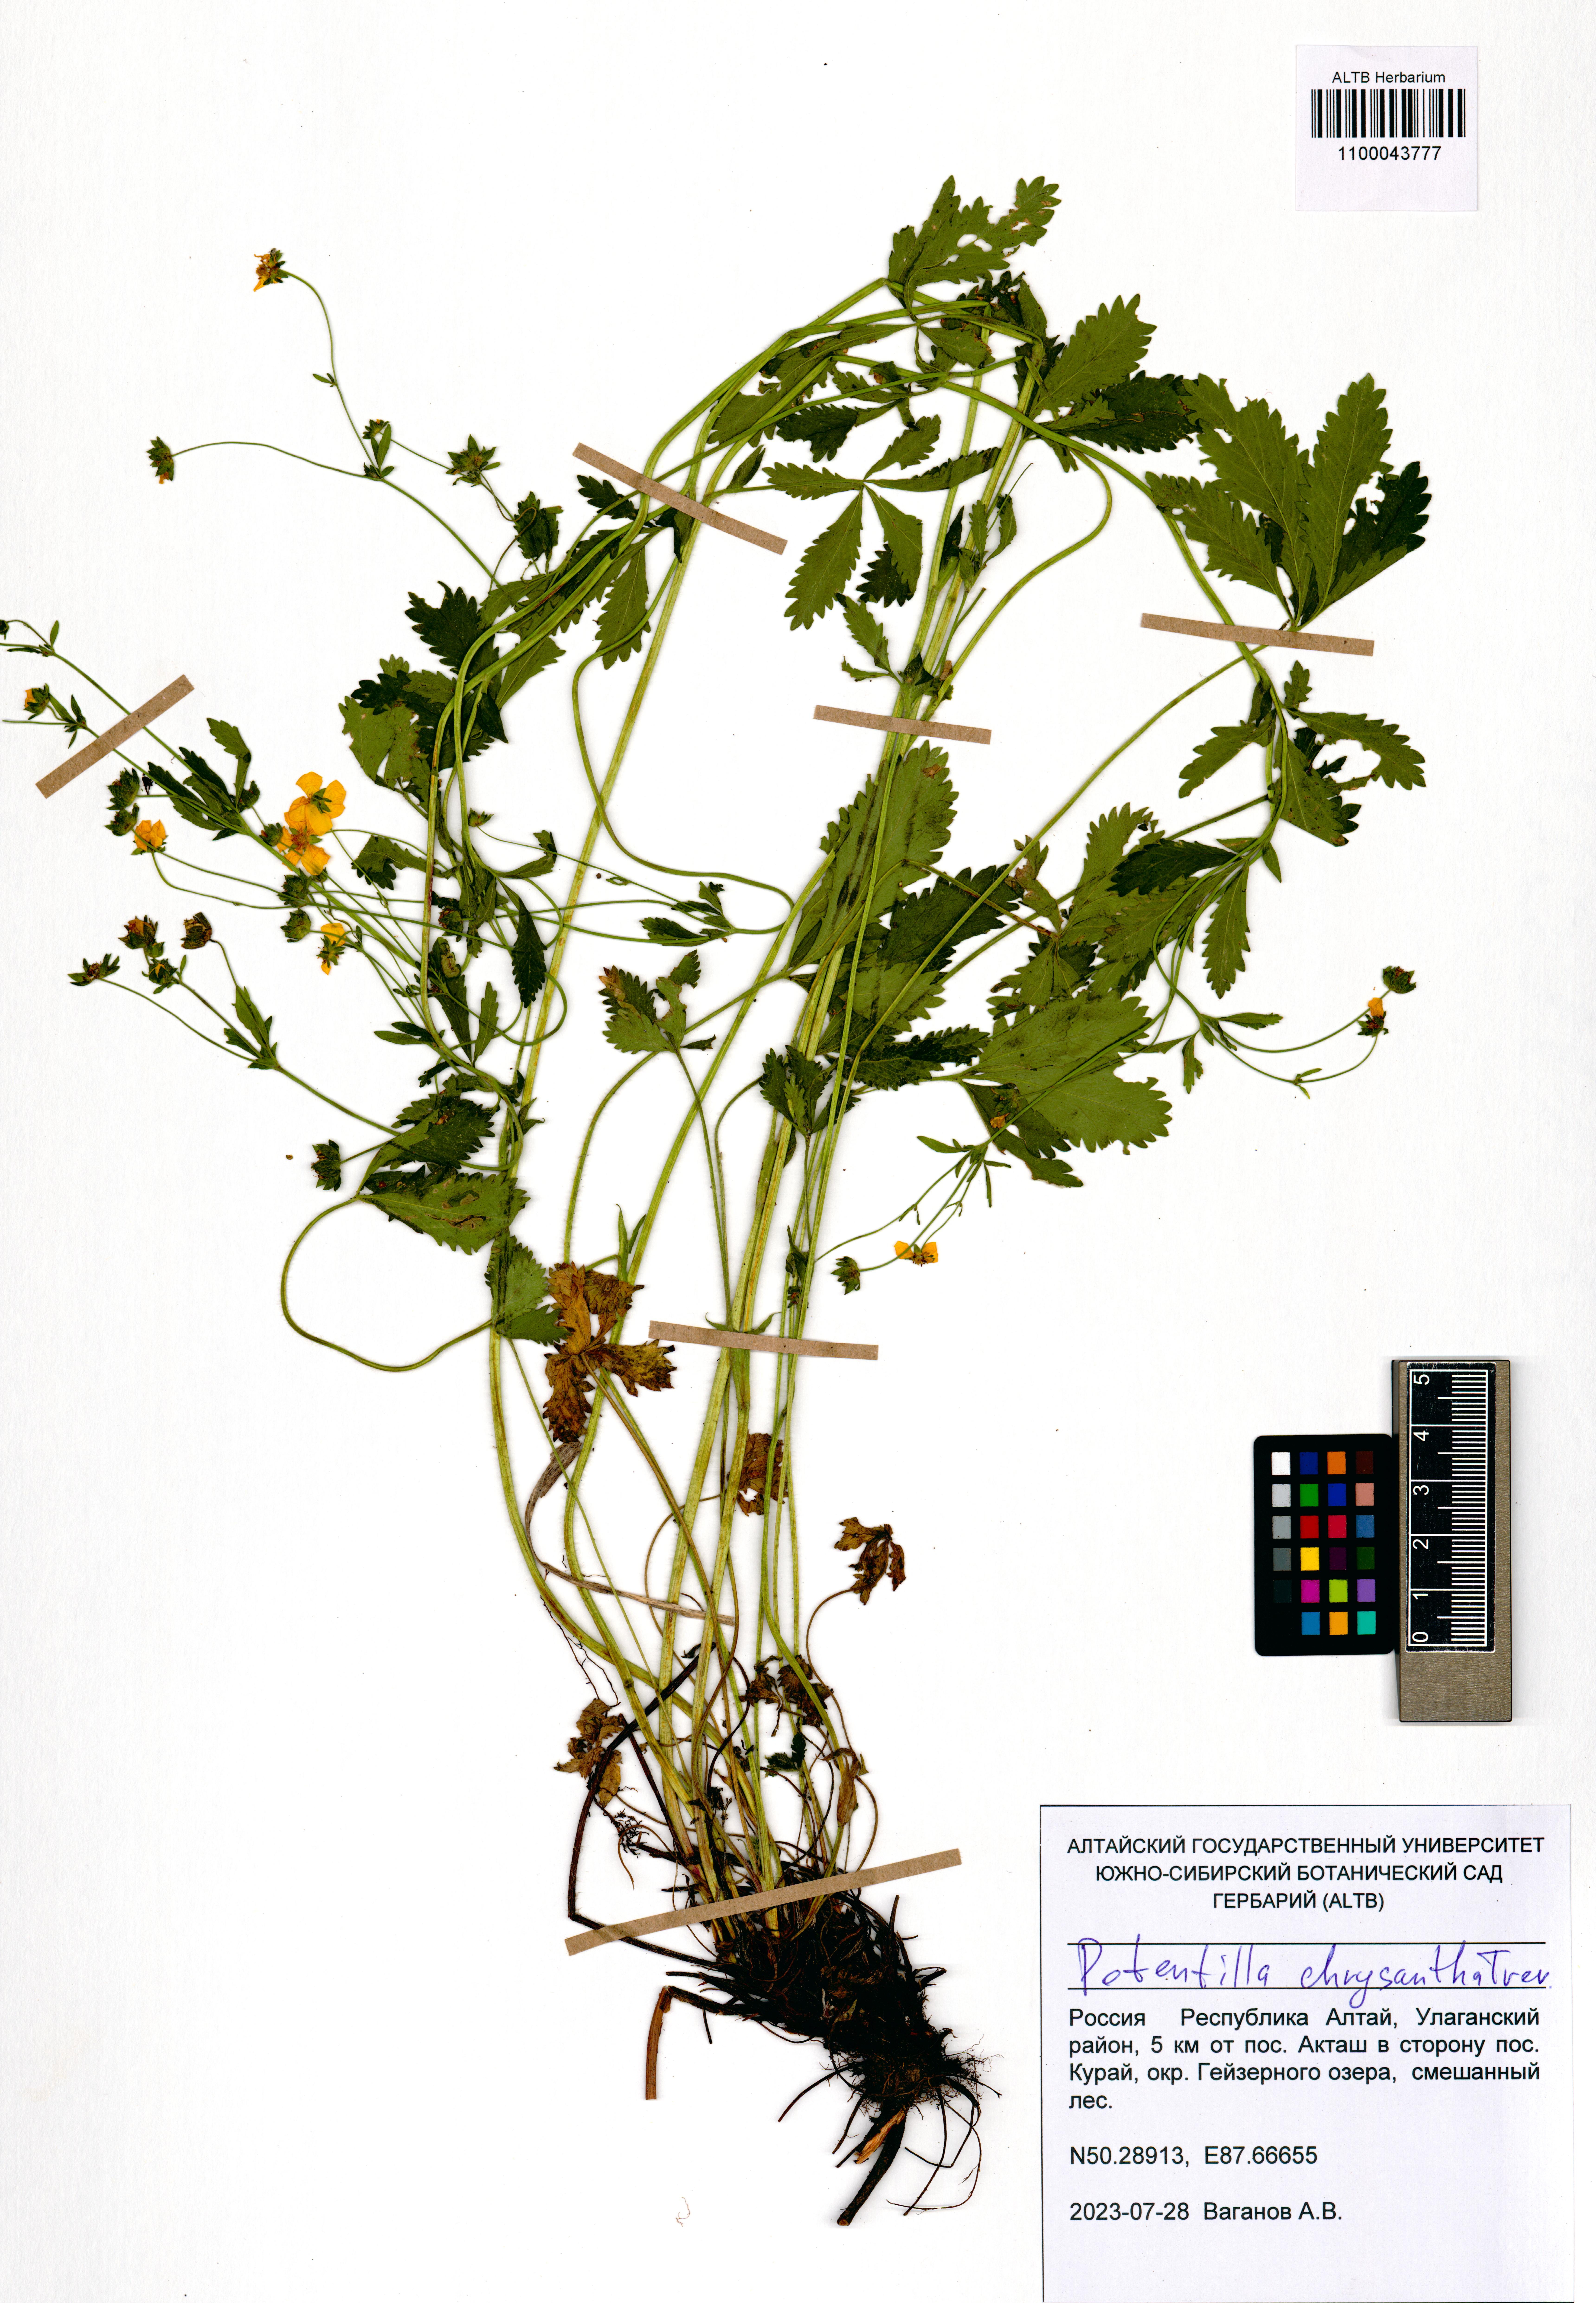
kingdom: Plantae
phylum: Tracheophyta
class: Magnoliopsida
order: Rosales
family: Rosaceae
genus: Potentilla
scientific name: Potentilla chrysantha
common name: Thuringian cinquefoil
